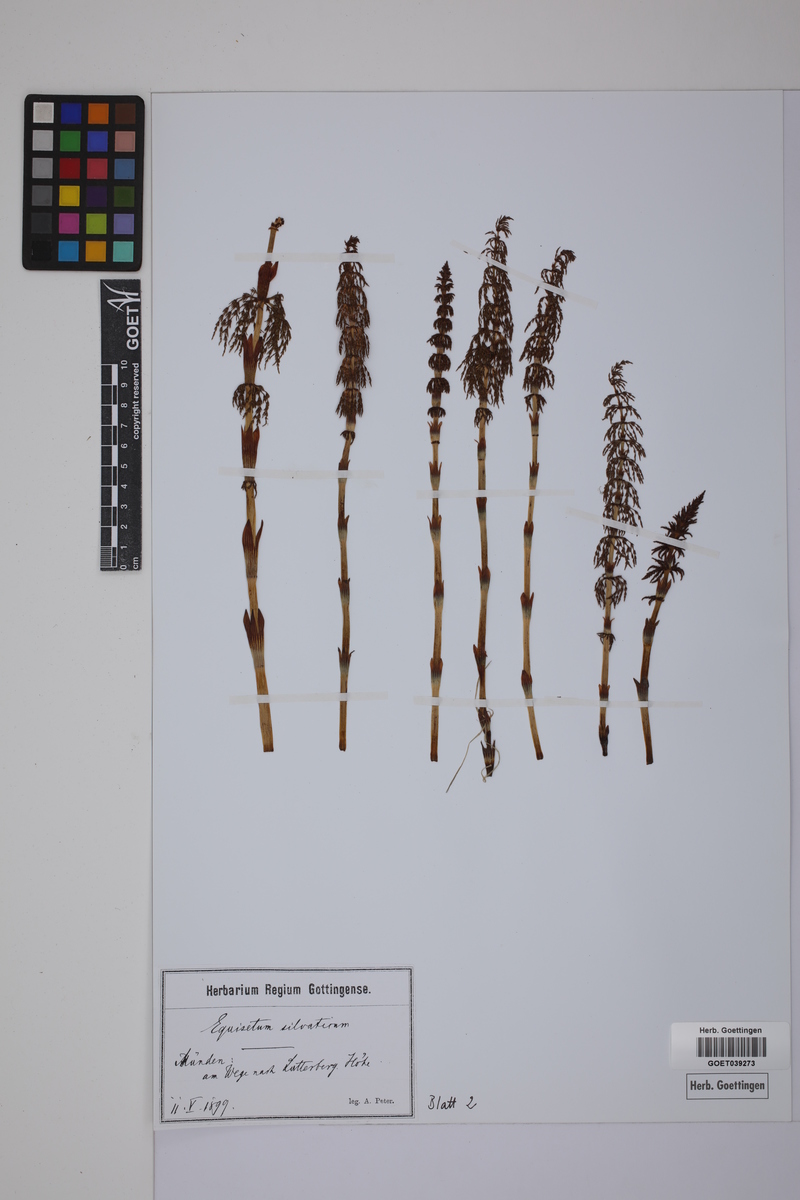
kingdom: Plantae
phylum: Tracheophyta
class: Polypodiopsida
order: Equisetales
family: Equisetaceae
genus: Equisetum
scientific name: Equisetum sylvaticum
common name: Wood horsetail
